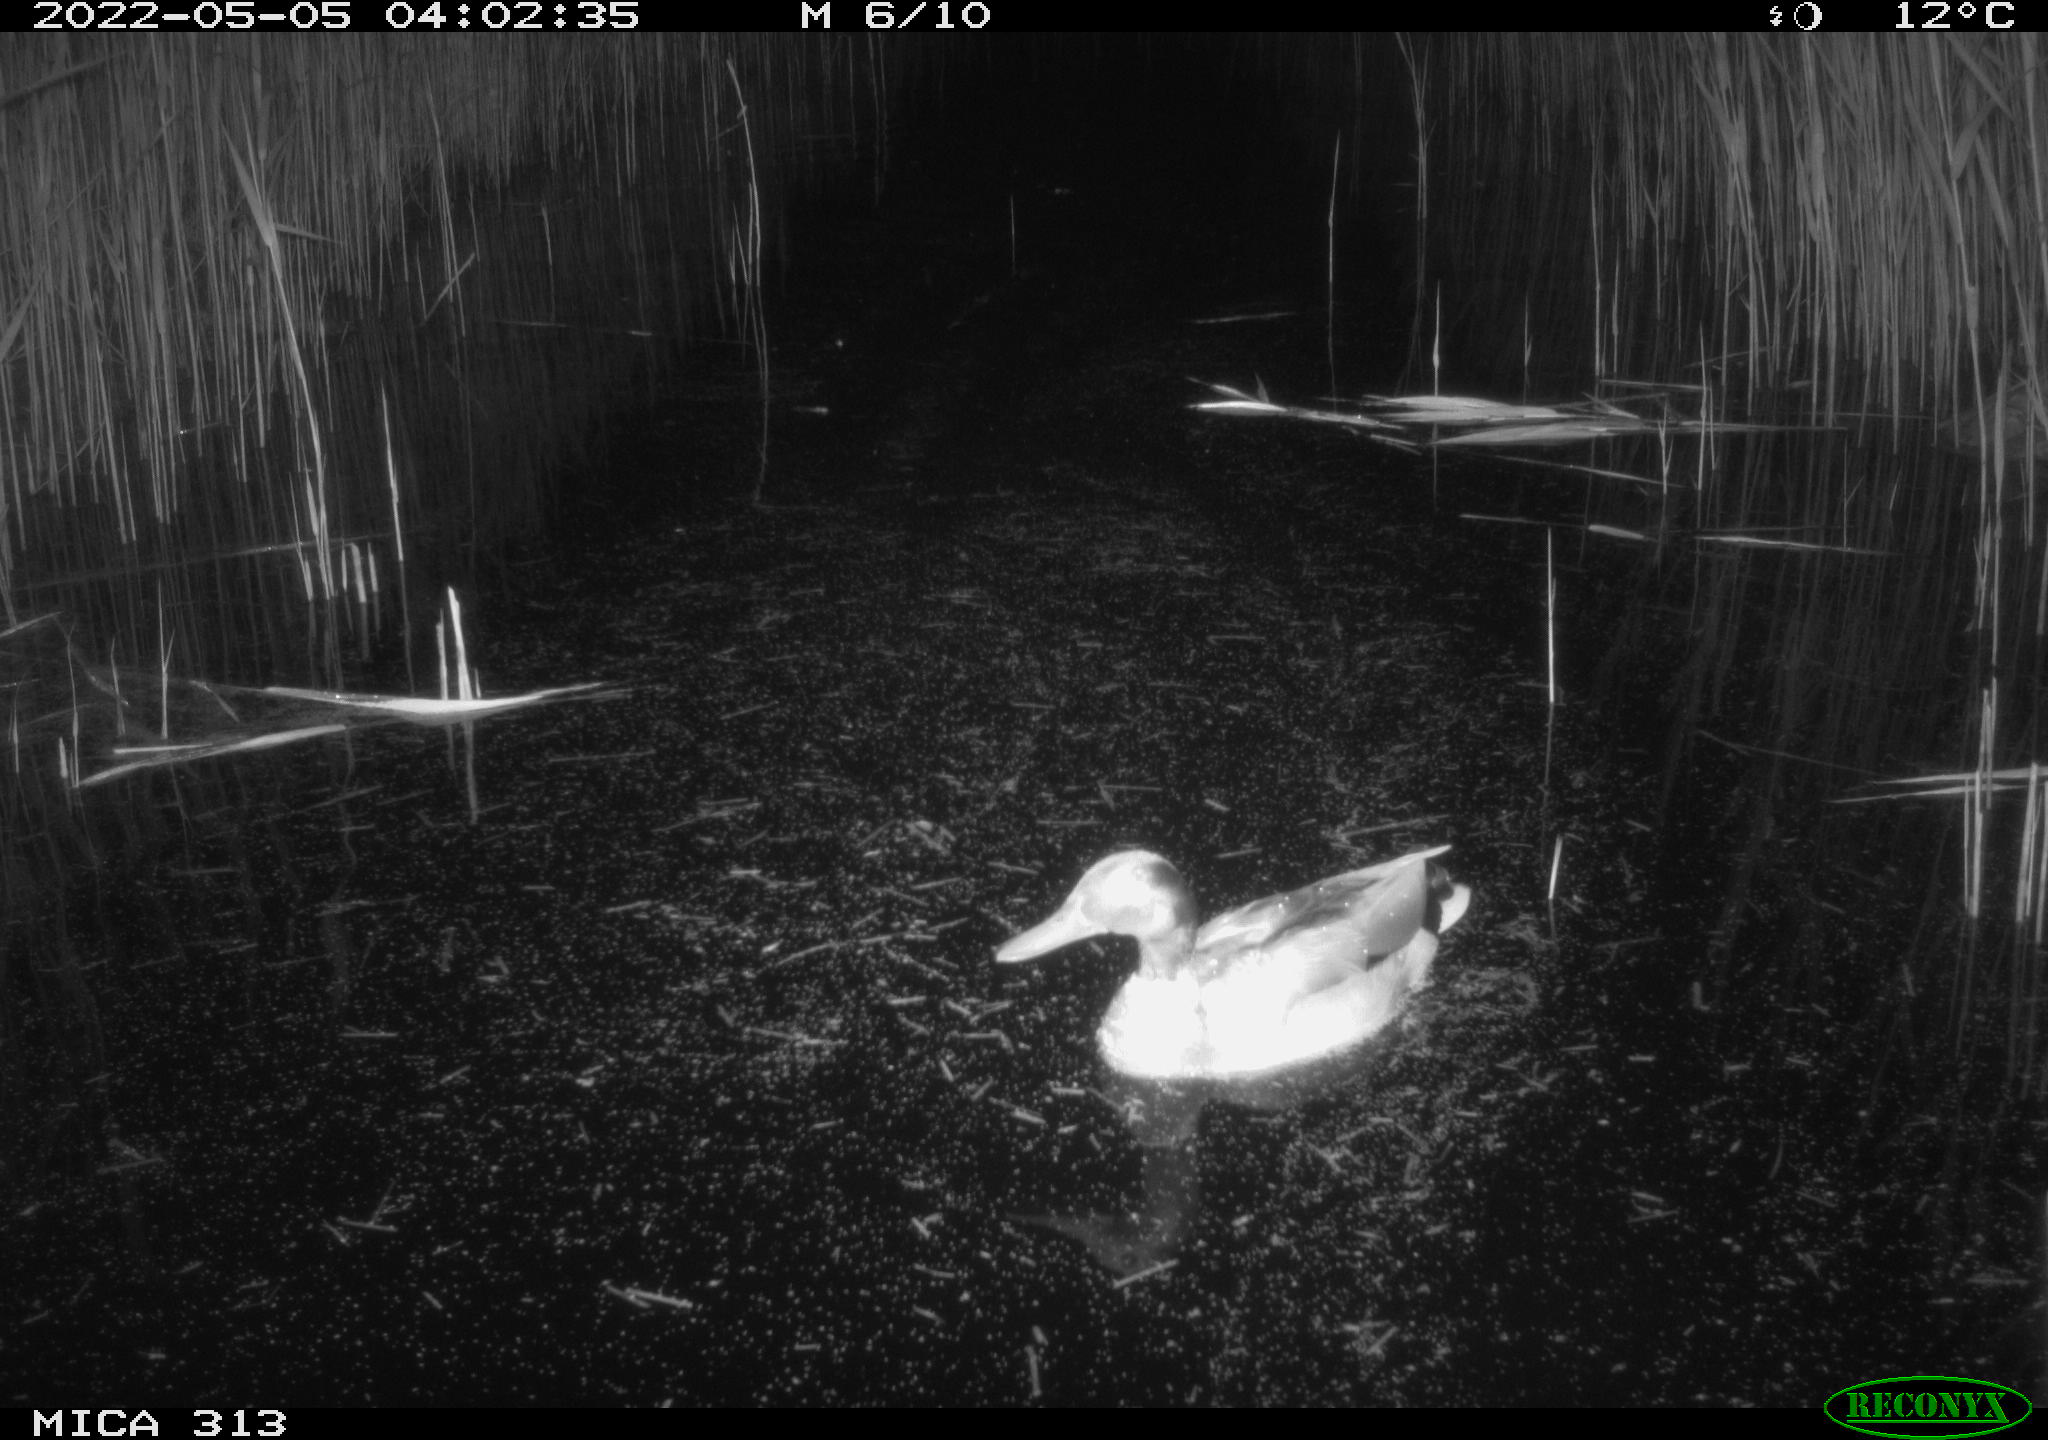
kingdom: Animalia
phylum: Chordata
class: Aves
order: Anseriformes
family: Anatidae
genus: Anas
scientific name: Anas platyrhynchos
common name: Mallard
